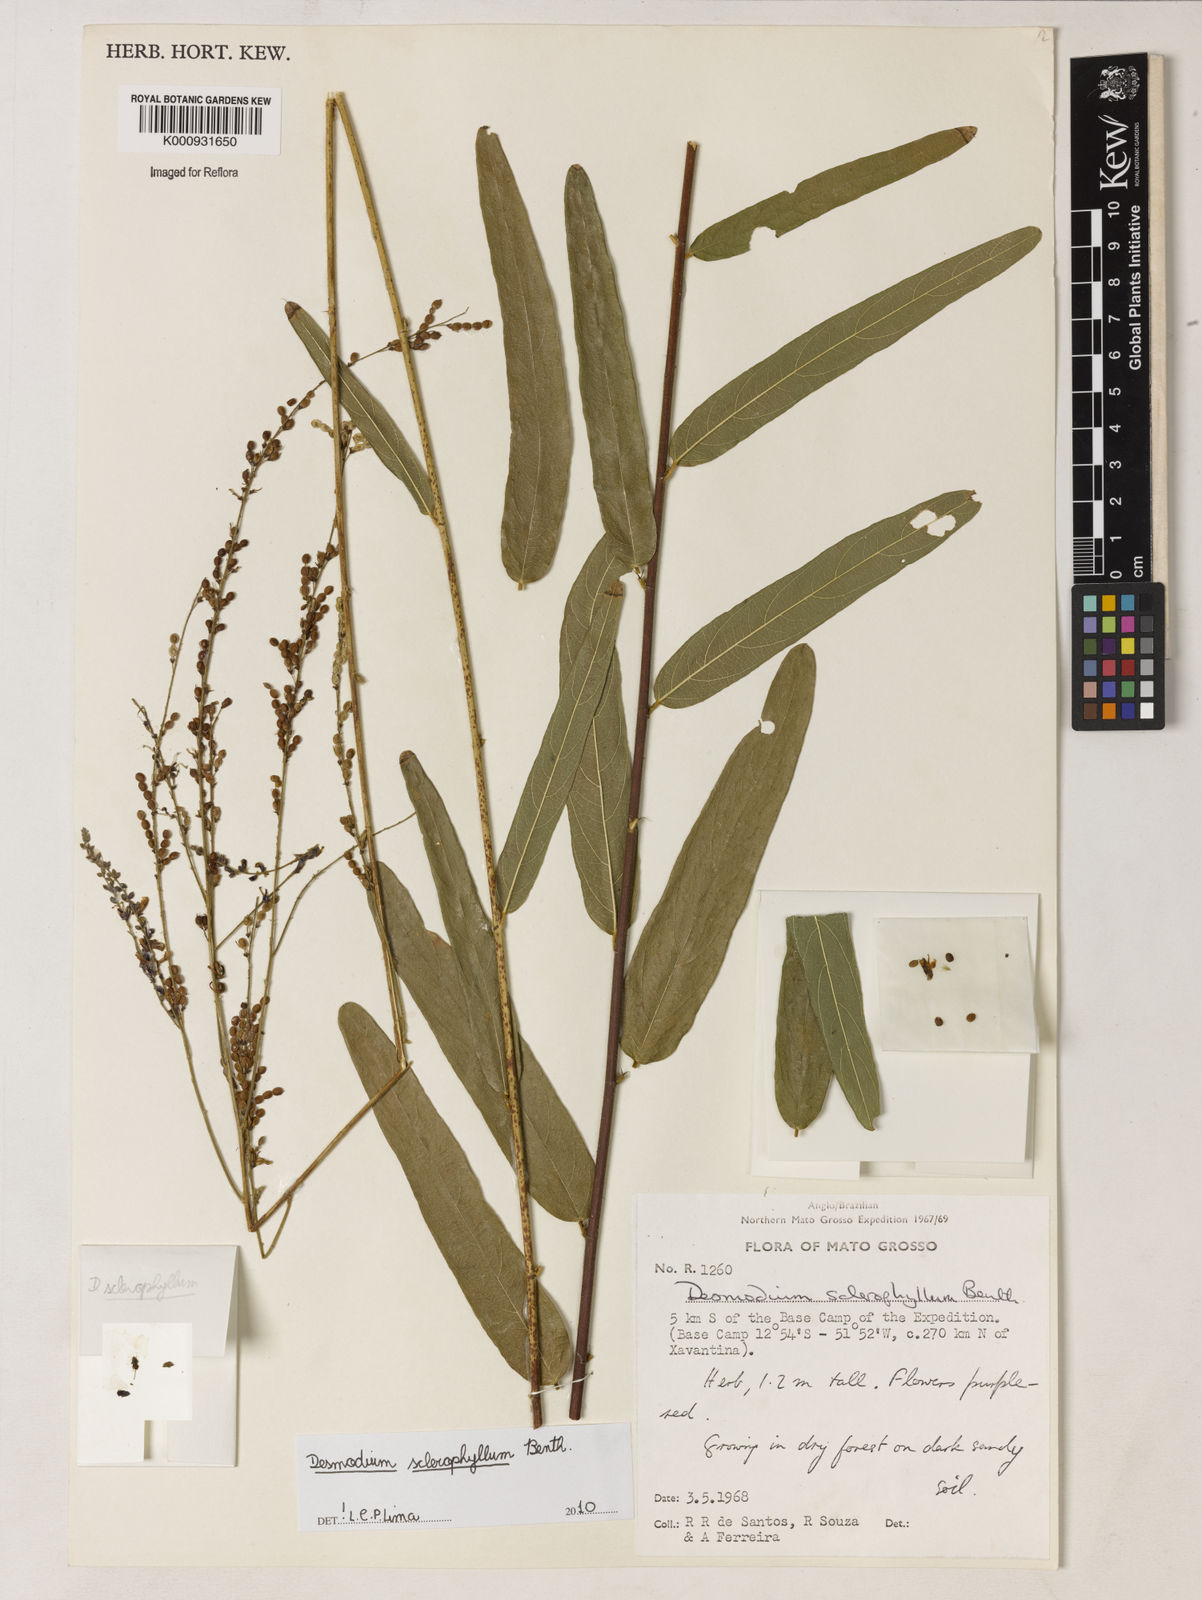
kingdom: Plantae
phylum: Tracheophyta
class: Magnoliopsida
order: Fabales
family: Fabaceae
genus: Desmodium
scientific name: Desmodium sclerophyllum
